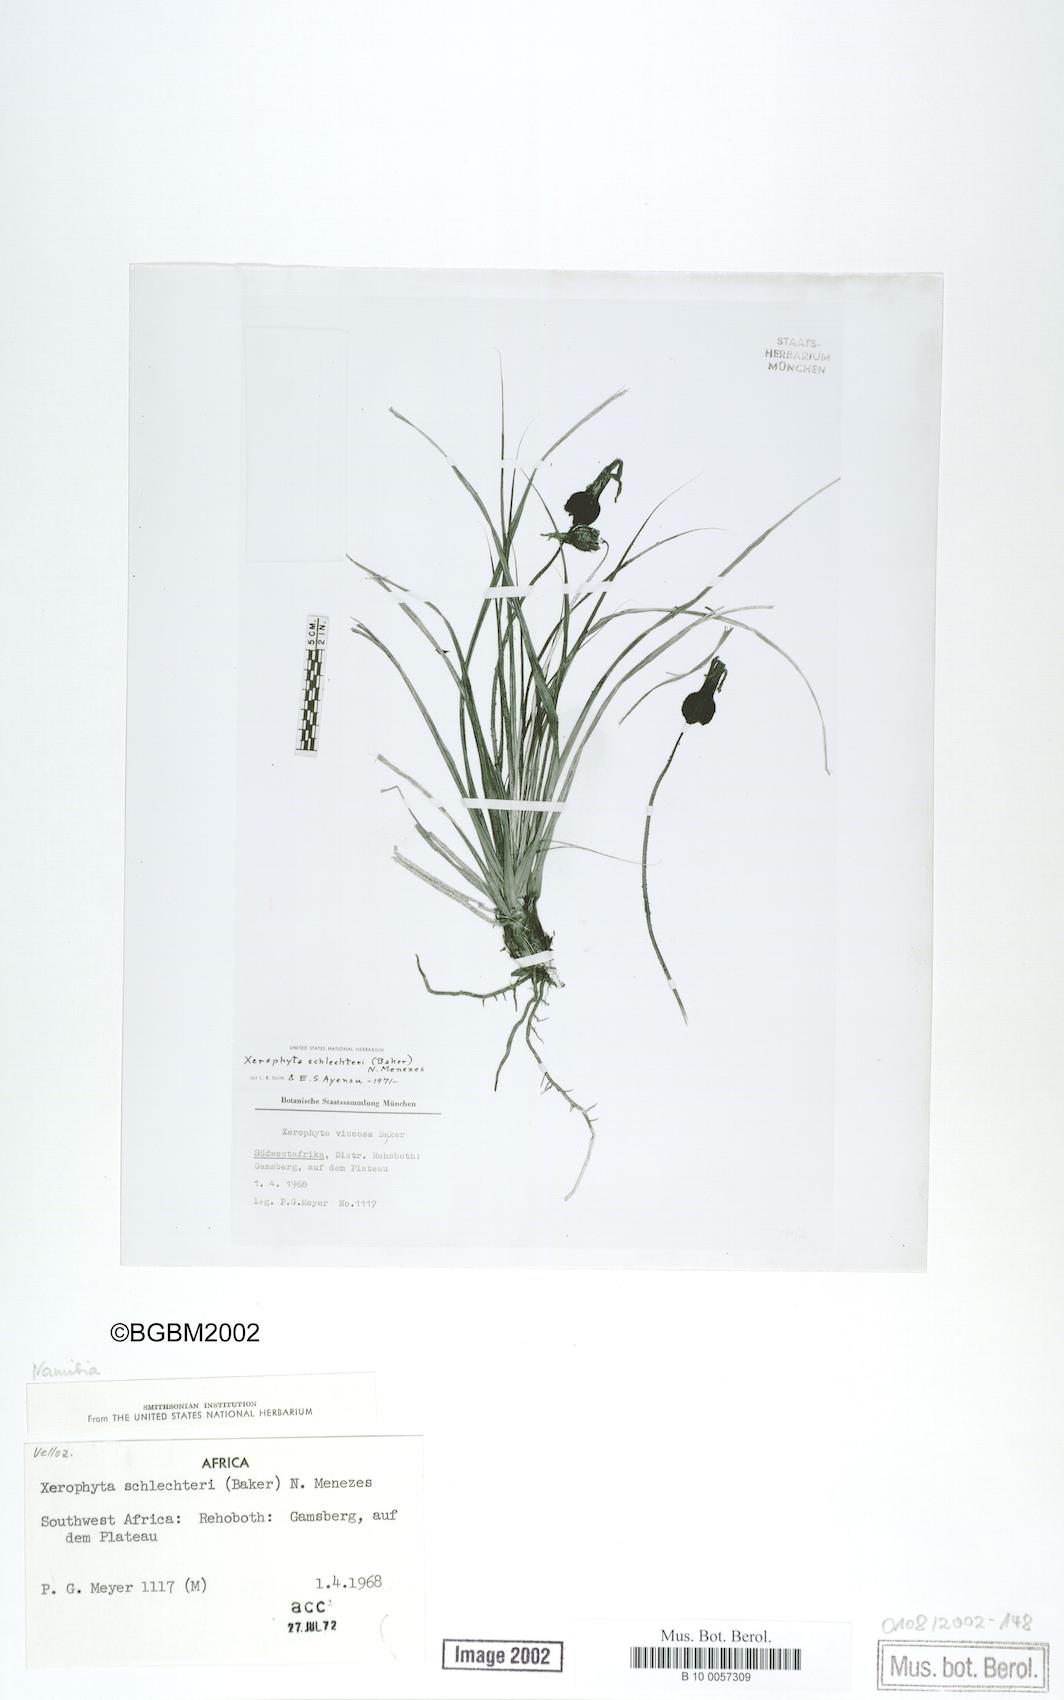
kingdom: Plantae
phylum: Tracheophyta
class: Liliopsida
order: Pandanales
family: Velloziaceae
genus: Xerophyta
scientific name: Xerophyta schlechteri
